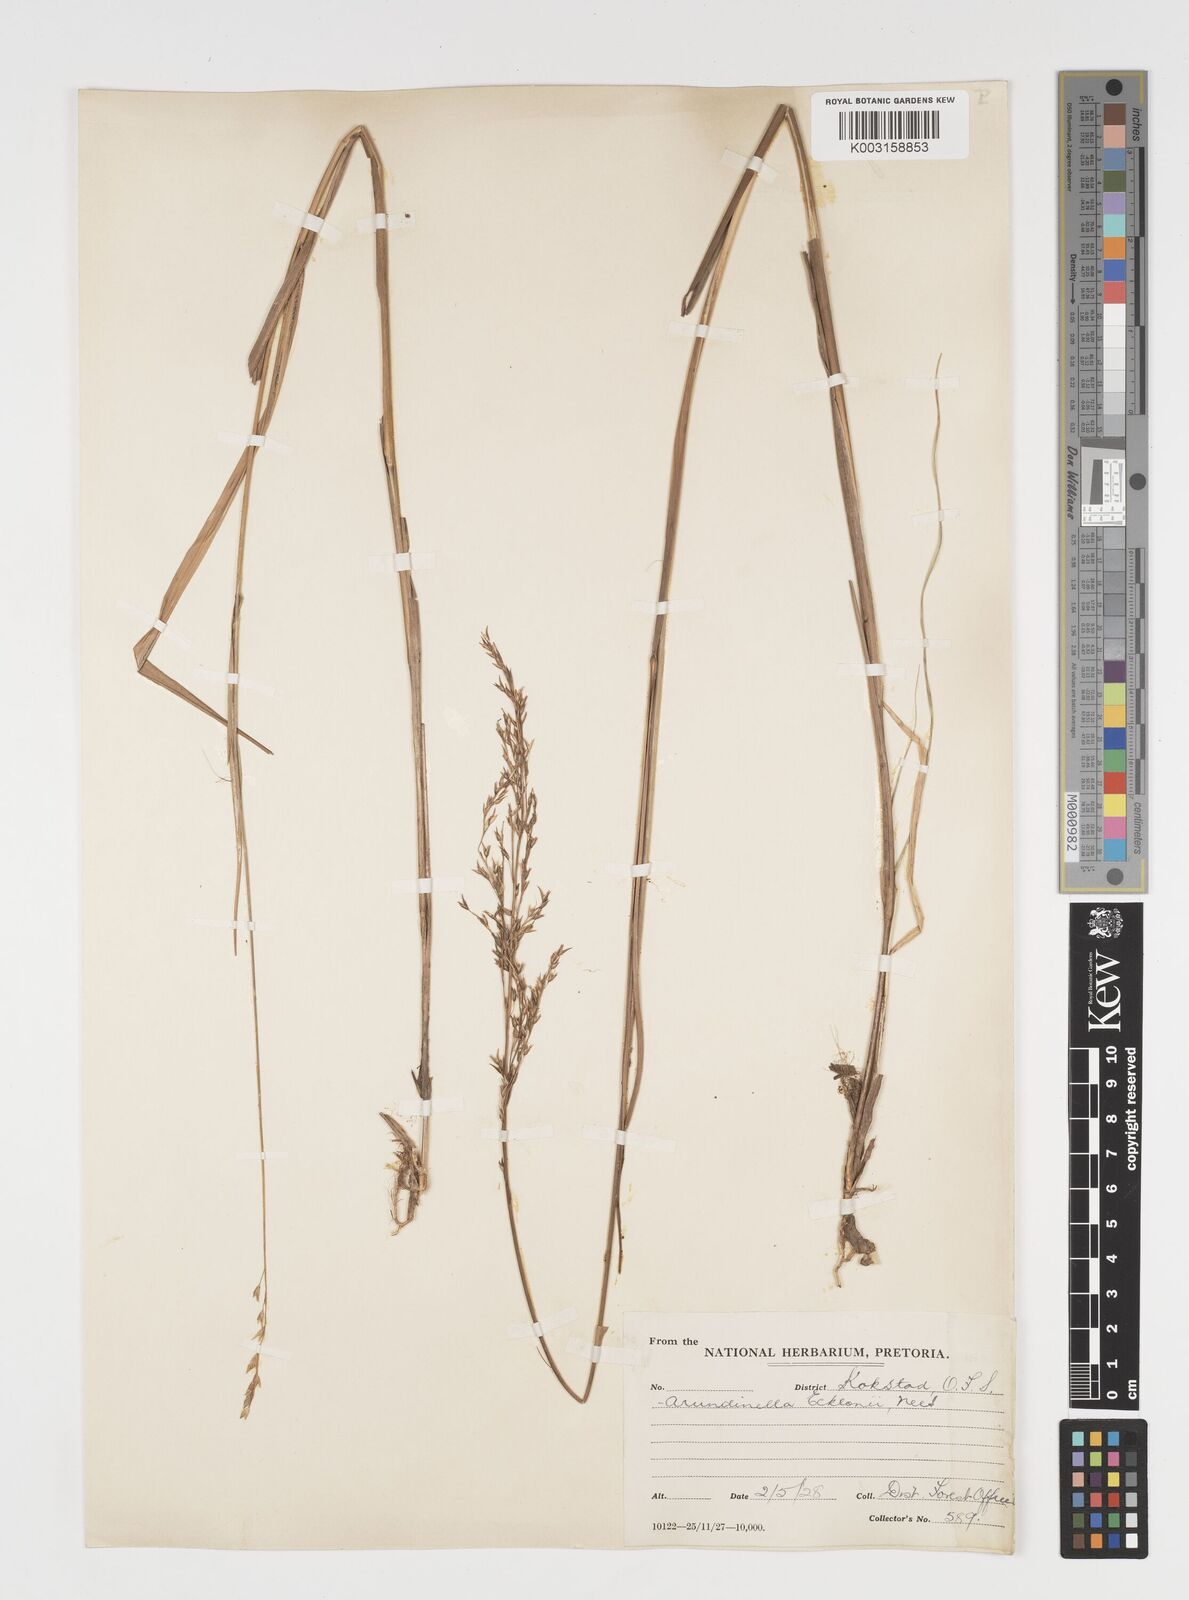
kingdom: Plantae
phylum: Tracheophyta
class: Liliopsida
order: Poales
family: Poaceae
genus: Arundinella
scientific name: Arundinella nepalensis
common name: Reed grass
